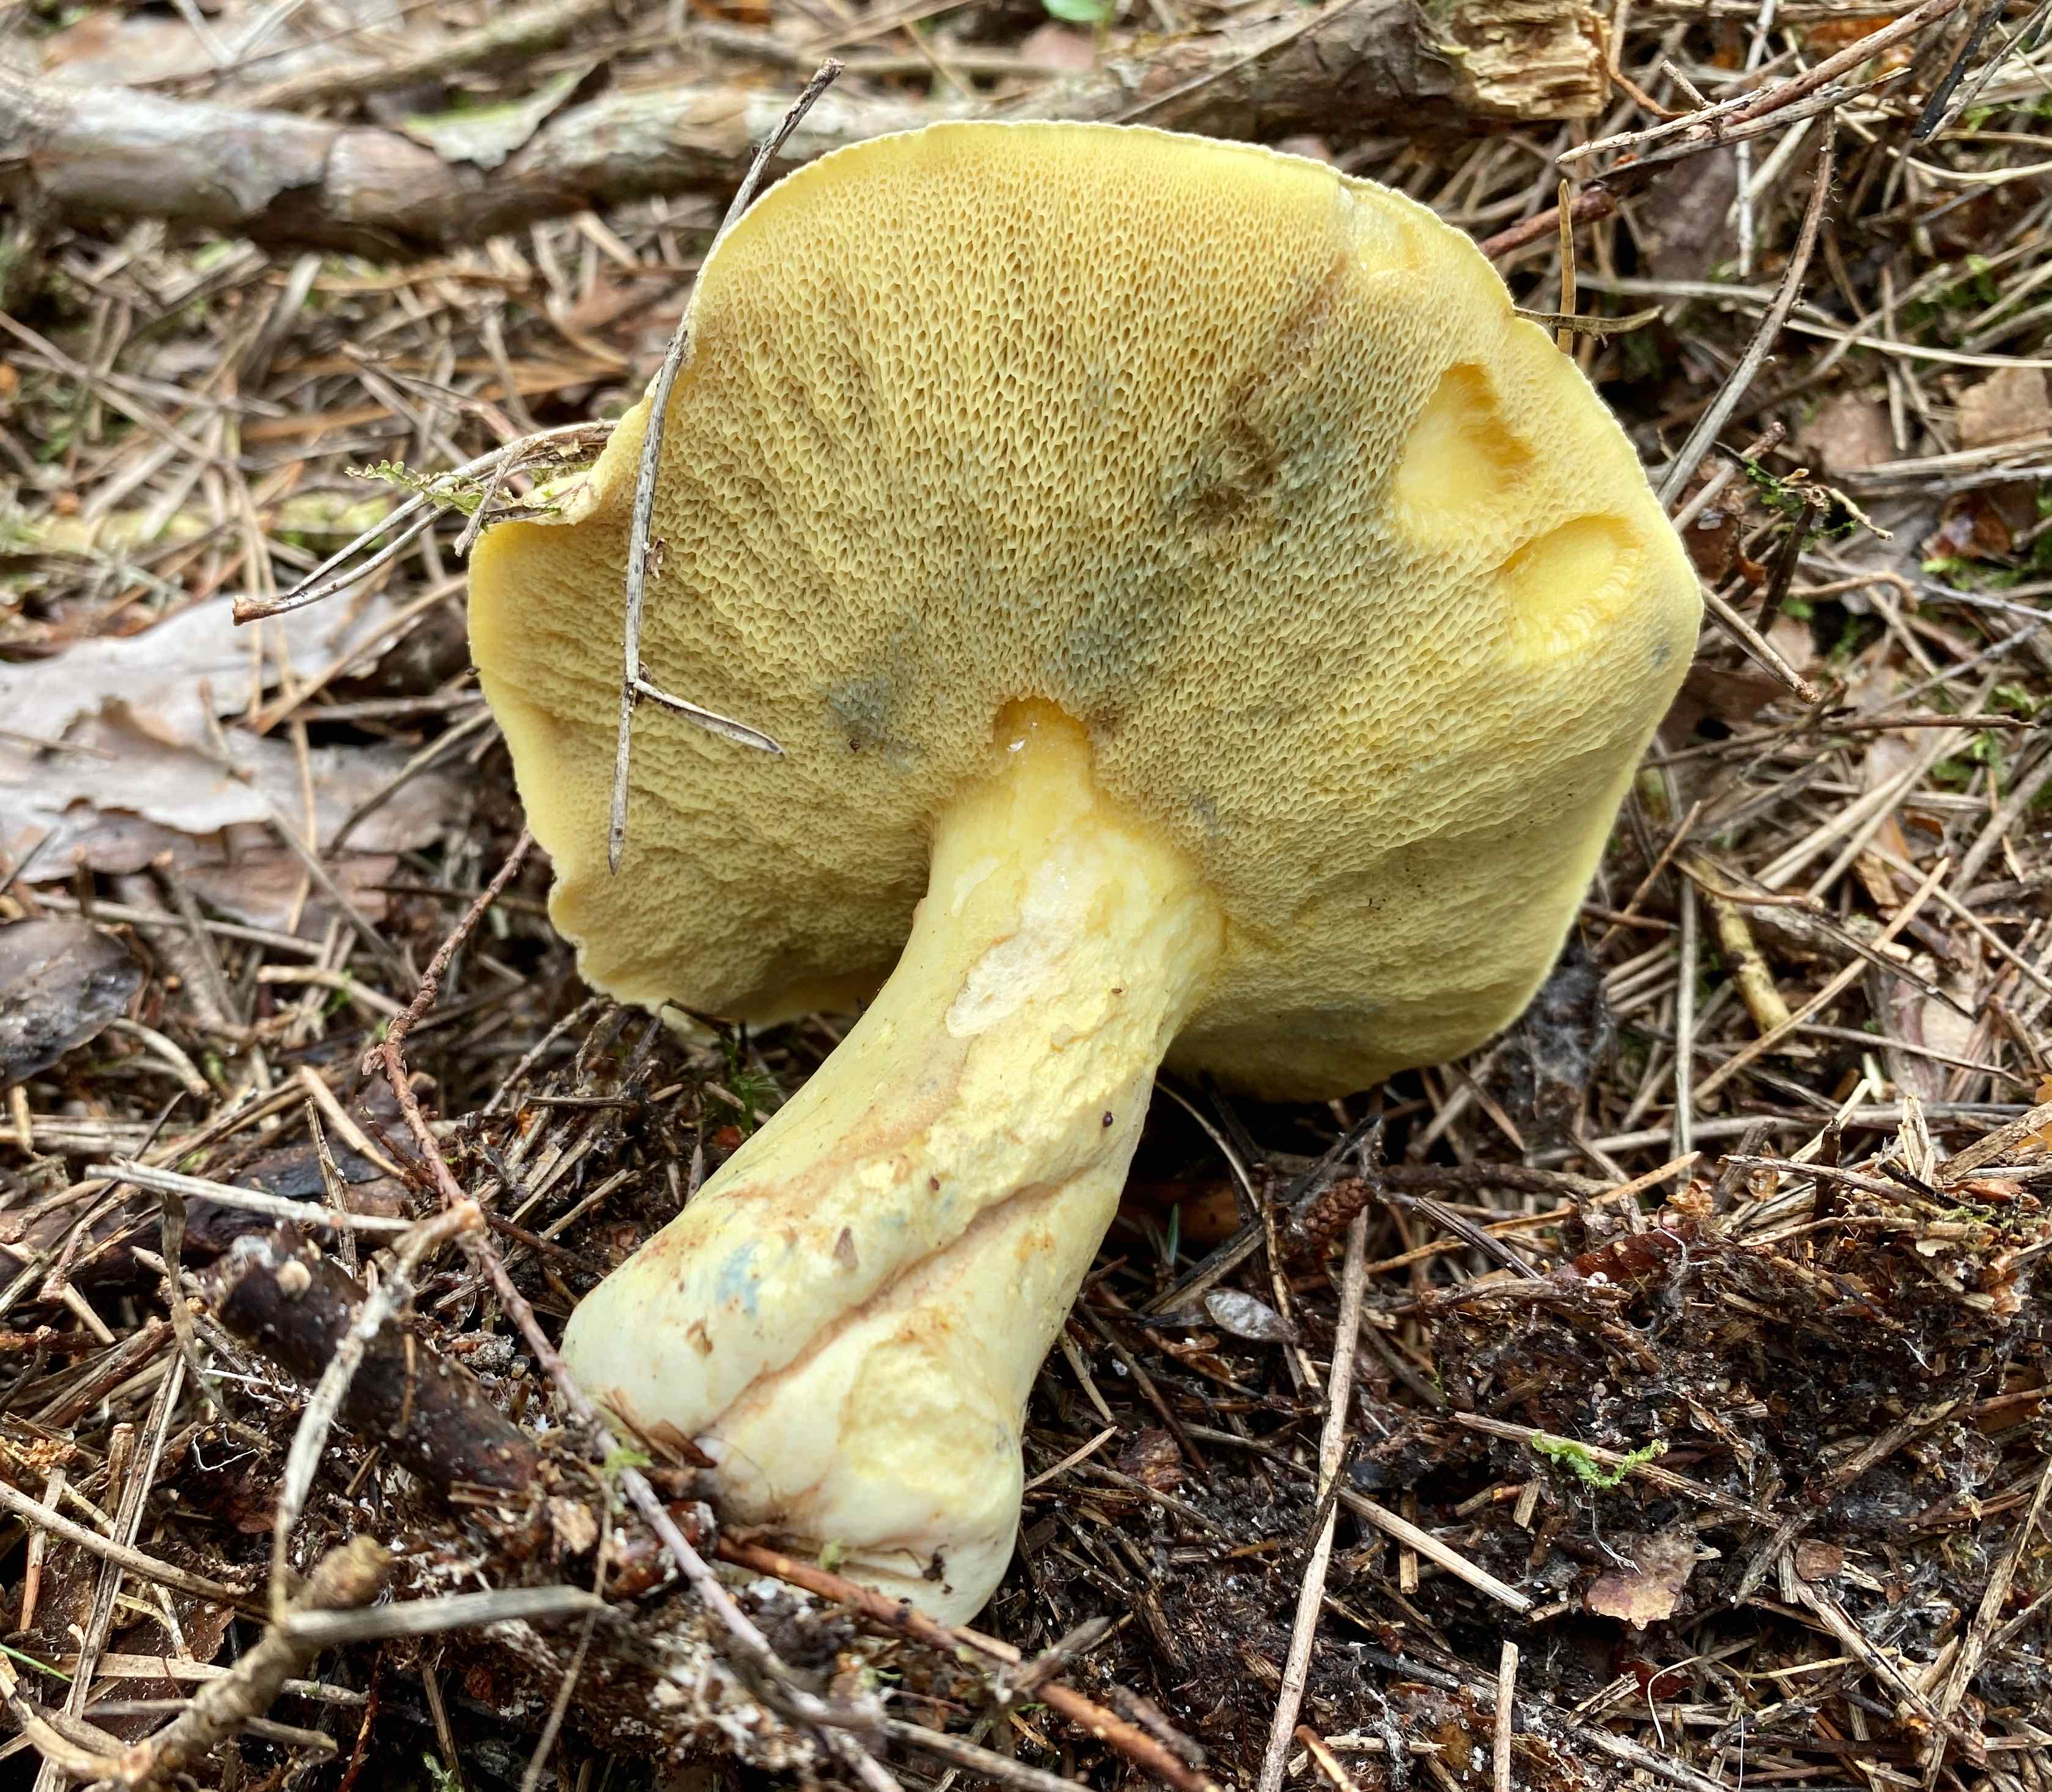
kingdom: Fungi
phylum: Basidiomycota
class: Agaricomycetes
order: Boletales
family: Suillaceae
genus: Suillus
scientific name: Suillus variegatus
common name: broget slimrørhat
